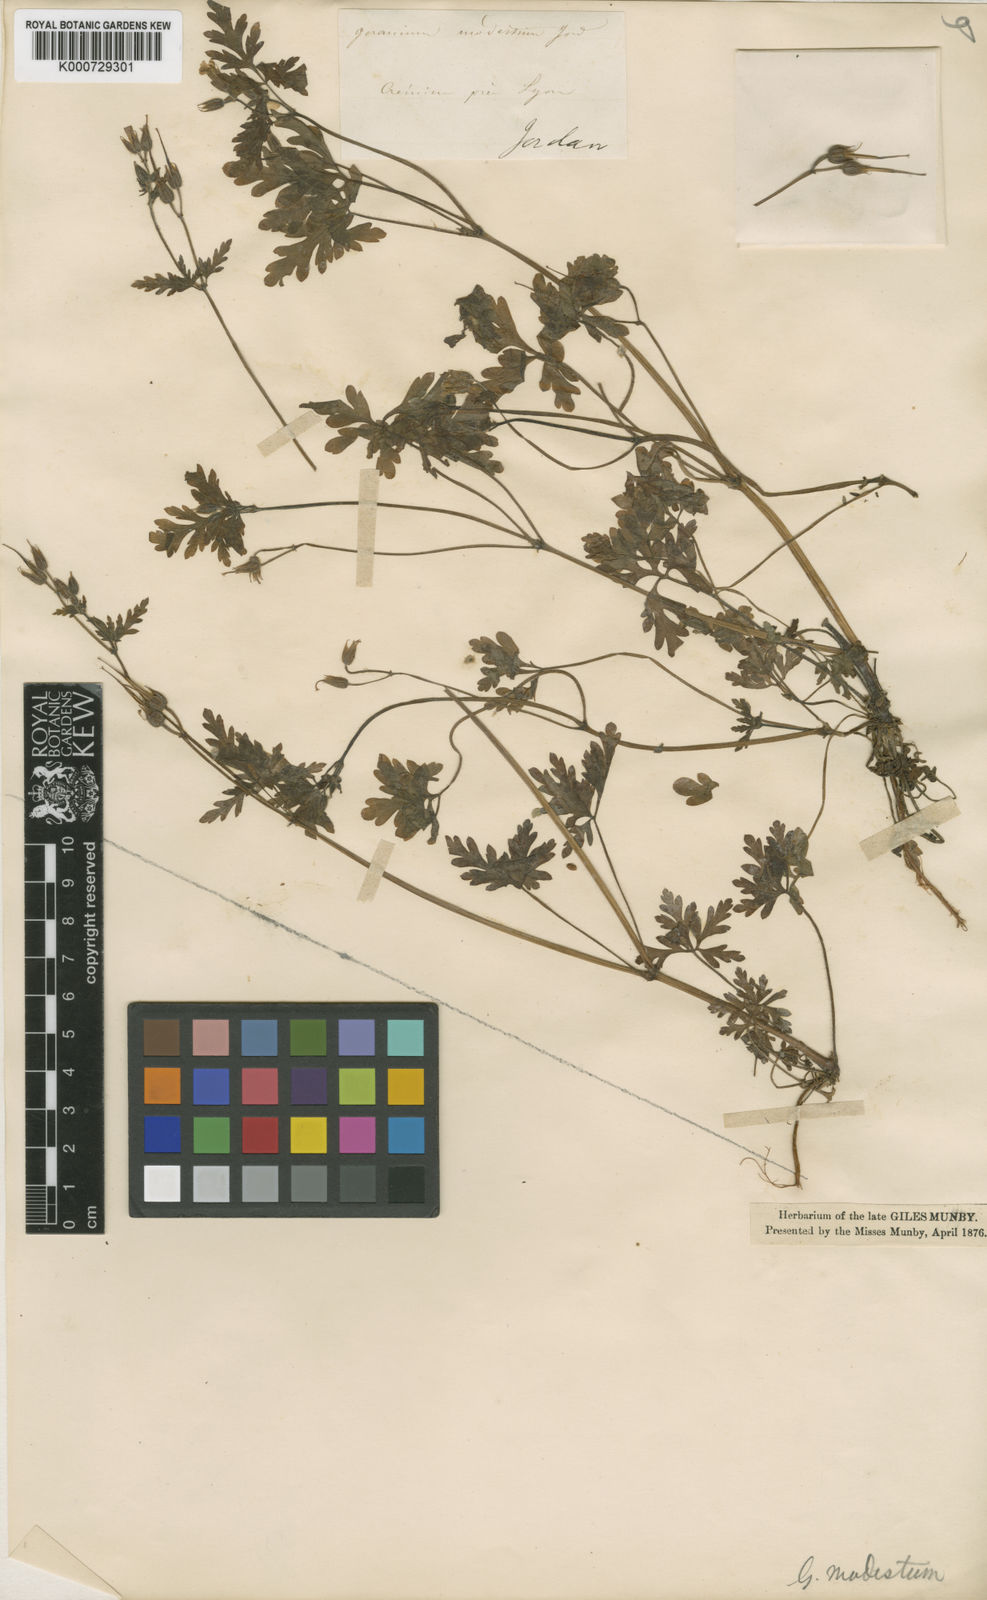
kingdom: Plantae
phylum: Tracheophyta
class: Magnoliopsida
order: Geraniales
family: Geraniaceae
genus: Geranium
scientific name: Geranium robertianum
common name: Herb-robert
